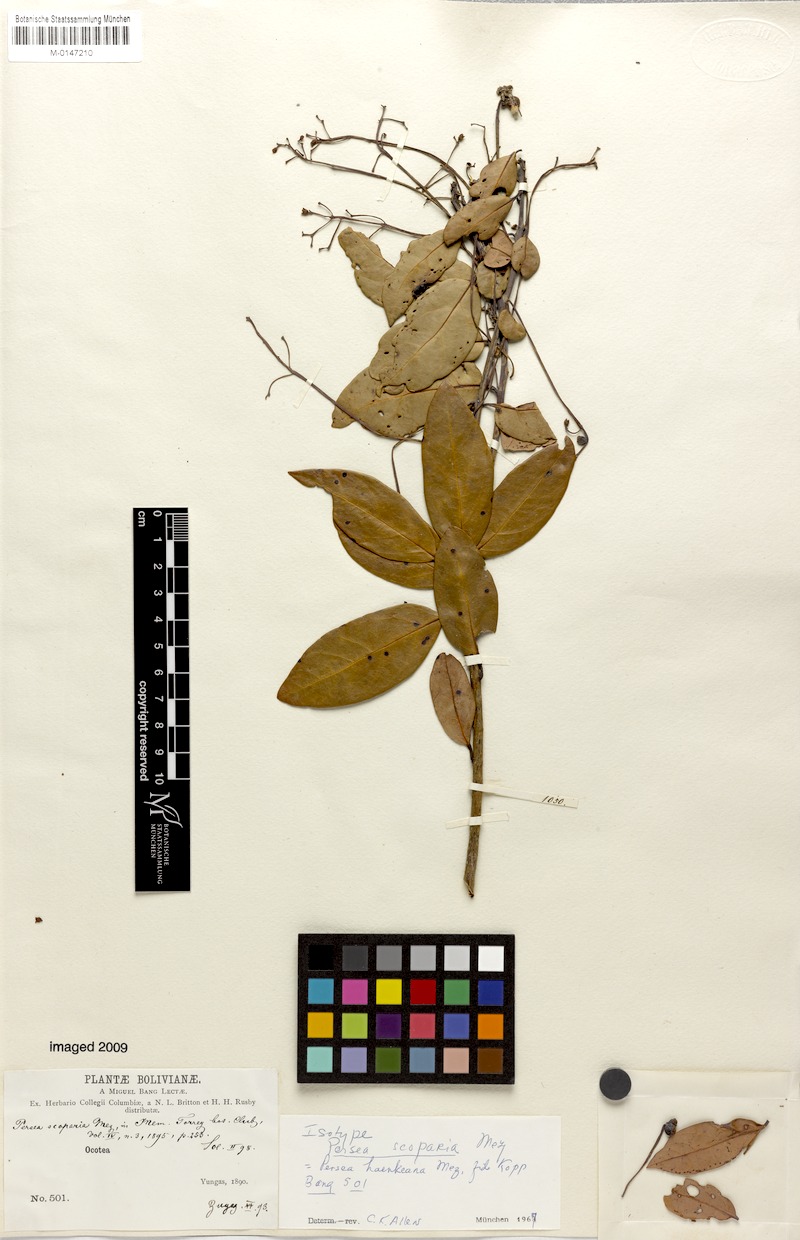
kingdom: Plantae
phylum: Tracheophyta
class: Magnoliopsida
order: Laurales
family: Lauraceae
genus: Persea
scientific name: Persea haenkeana
